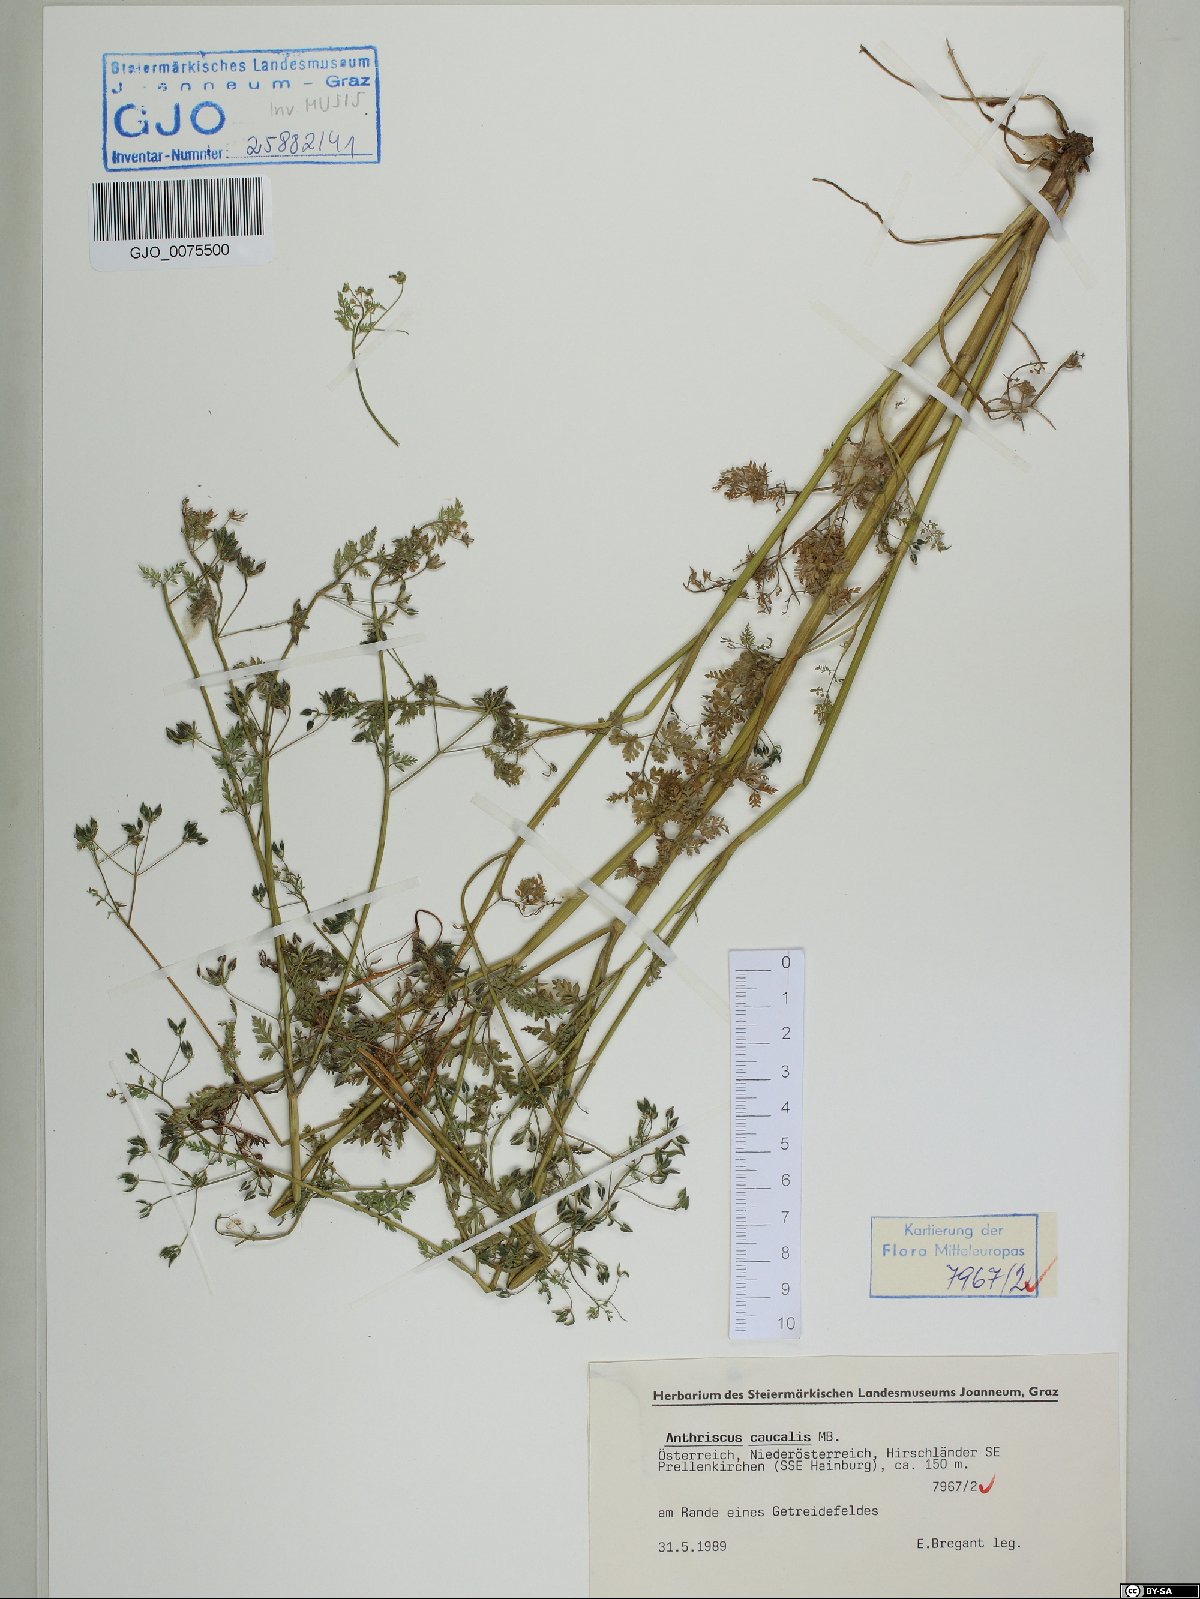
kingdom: Plantae
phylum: Tracheophyta
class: Magnoliopsida
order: Apiales
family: Apiaceae
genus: Anthriscus
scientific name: Anthriscus caucalis
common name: Bur chervil
